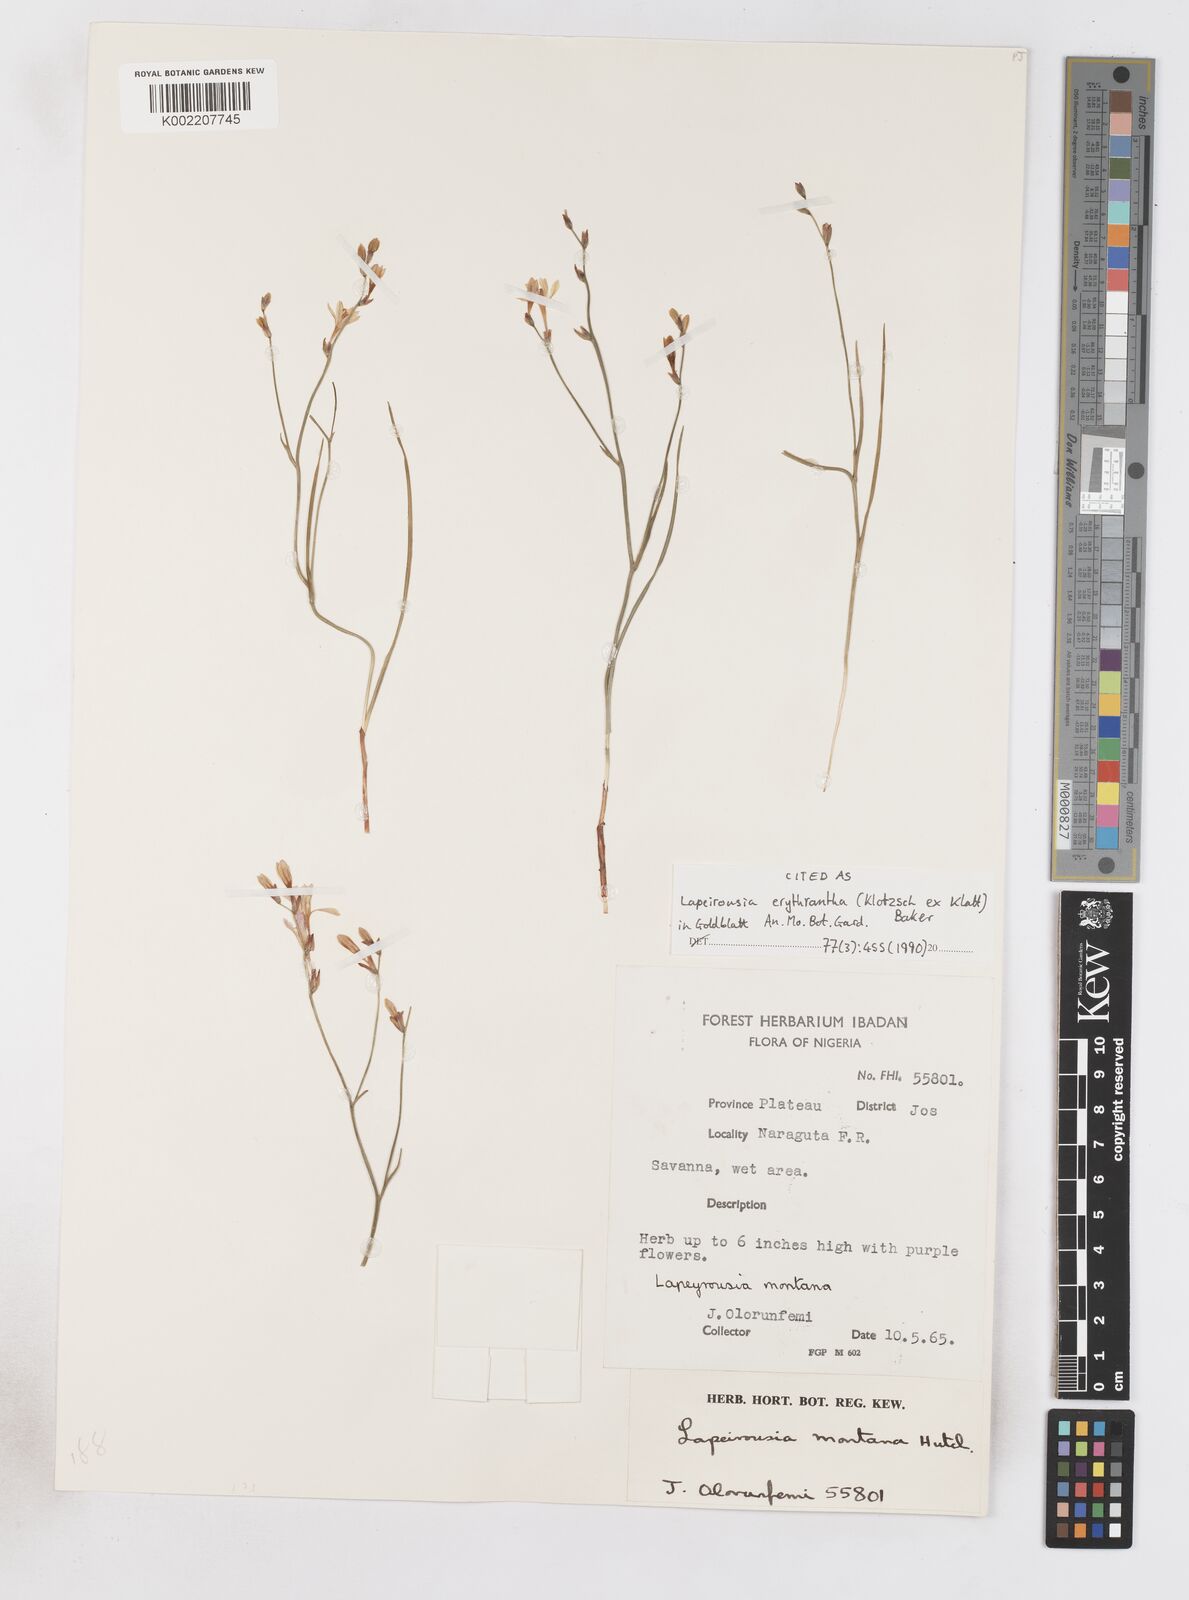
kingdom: Plantae
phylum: Tracheophyta
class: Liliopsida
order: Asparagales
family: Iridaceae
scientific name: Iridaceae
